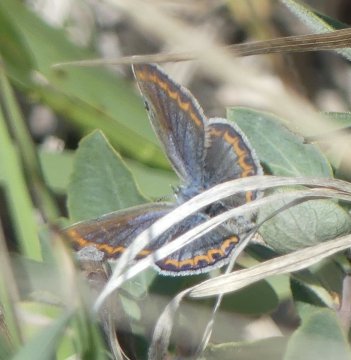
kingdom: Animalia
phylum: Arthropoda
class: Insecta
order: Lepidoptera
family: Lycaenidae
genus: Lycaeides
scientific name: Lycaeides melissa
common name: Melissa Blue
